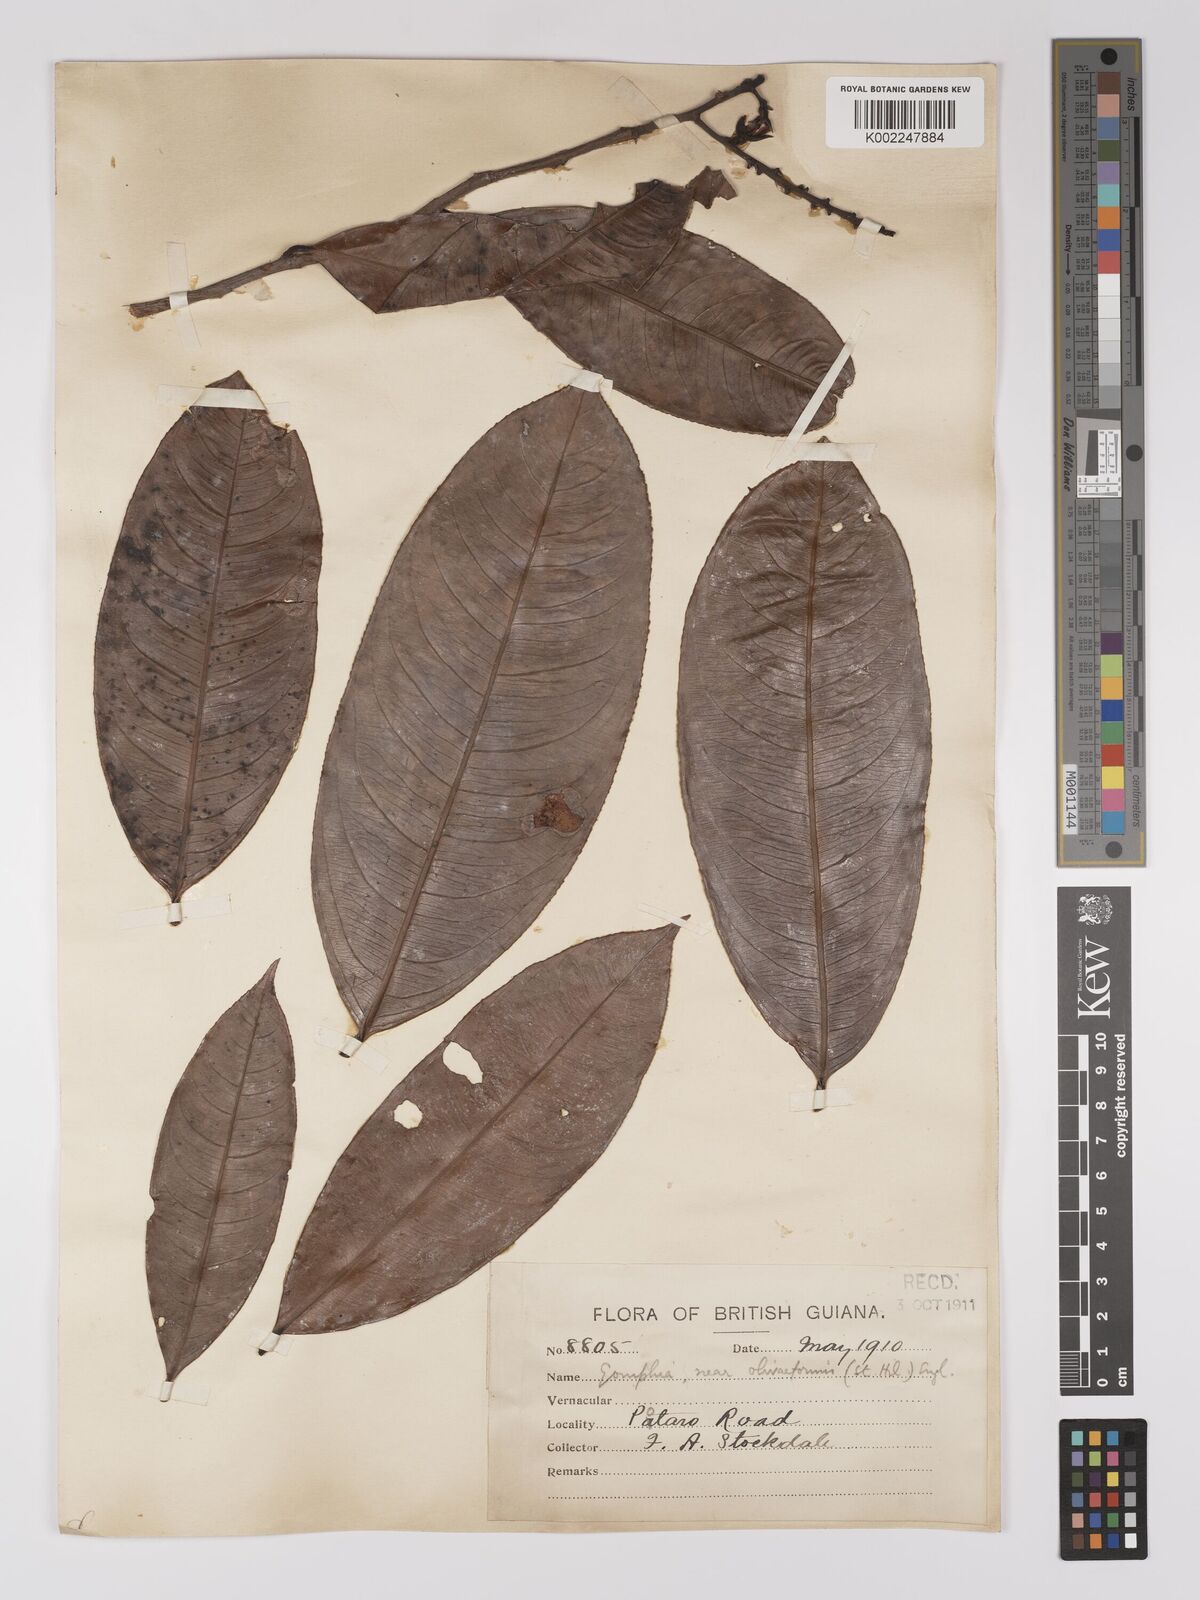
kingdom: Plantae
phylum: Tracheophyta
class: Magnoliopsida
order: Malpighiales
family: Ochnaceae
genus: Ouratea
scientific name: Ouratea longifolia
